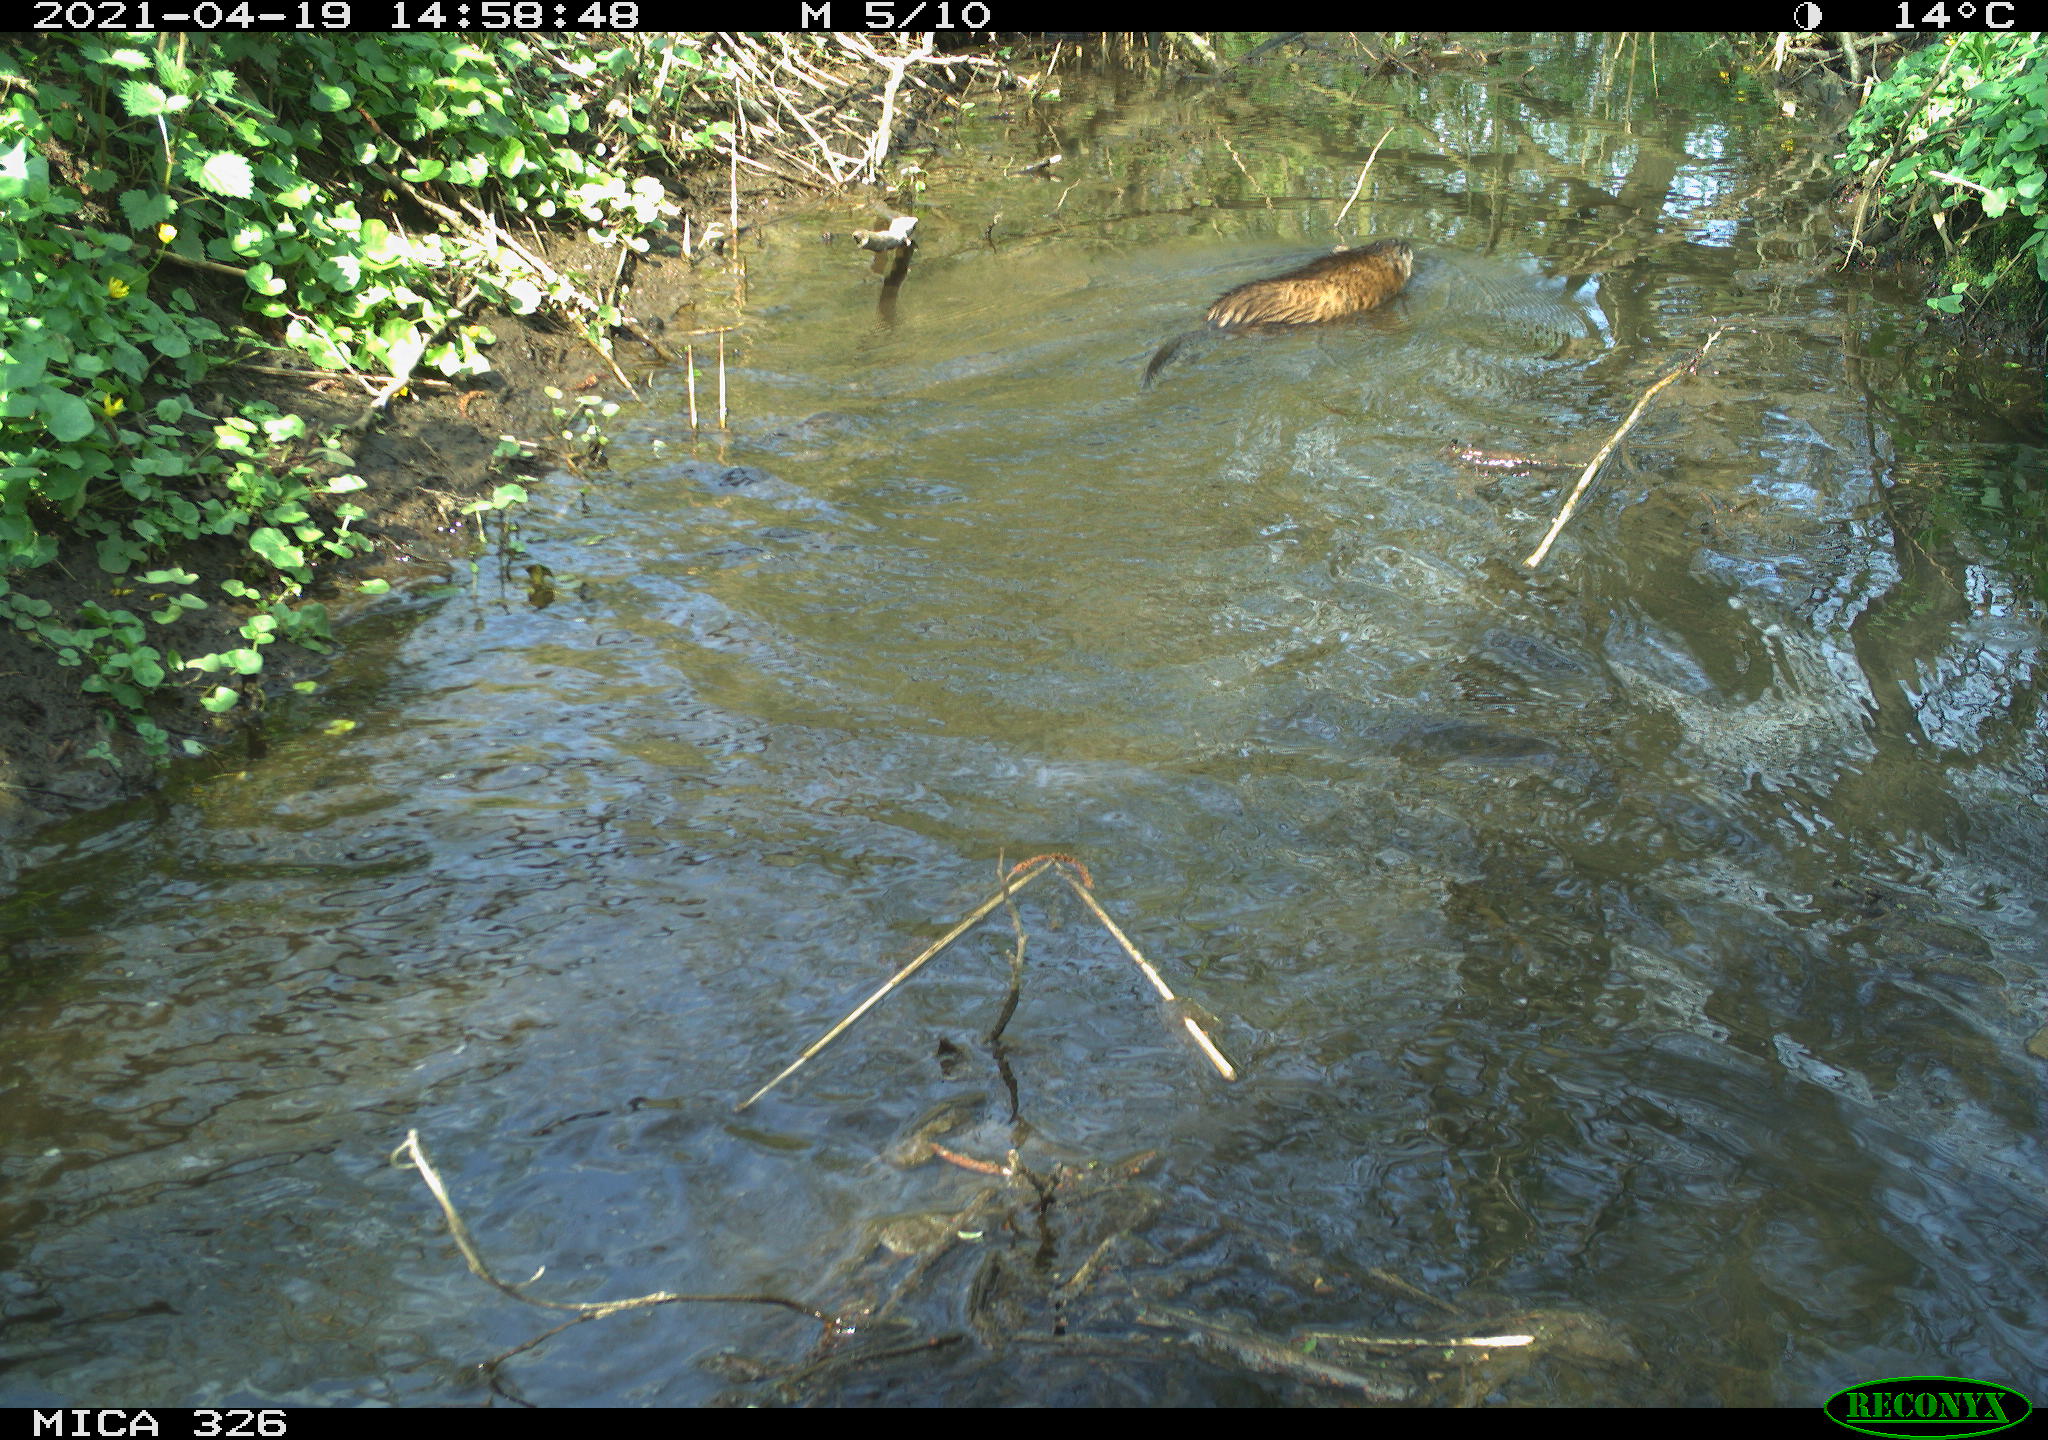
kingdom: Animalia
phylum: Chordata
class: Mammalia
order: Rodentia
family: Cricetidae
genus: Ondatra
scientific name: Ondatra zibethicus
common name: Muskrat
